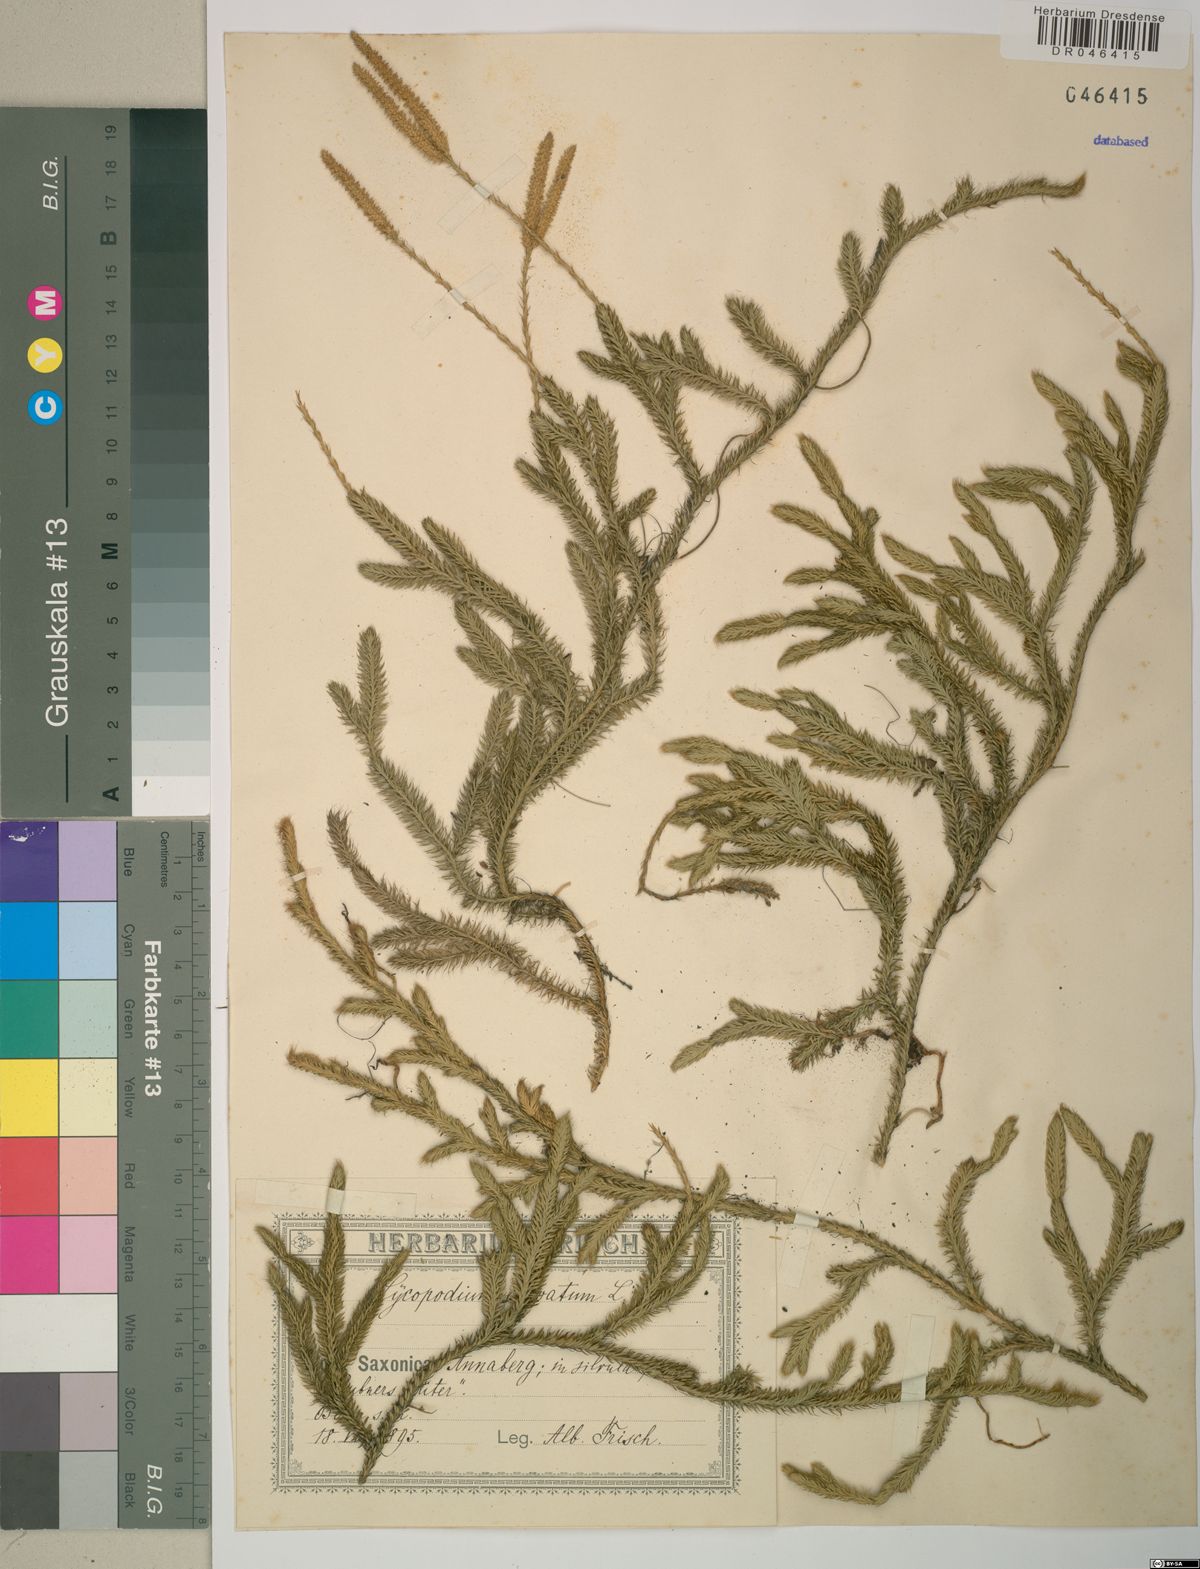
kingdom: Plantae
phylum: Tracheophyta
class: Lycopodiopsida
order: Lycopodiales
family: Lycopodiaceae
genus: Lycopodium
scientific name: Lycopodium clavatum
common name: Stag's-horn clubmoss
